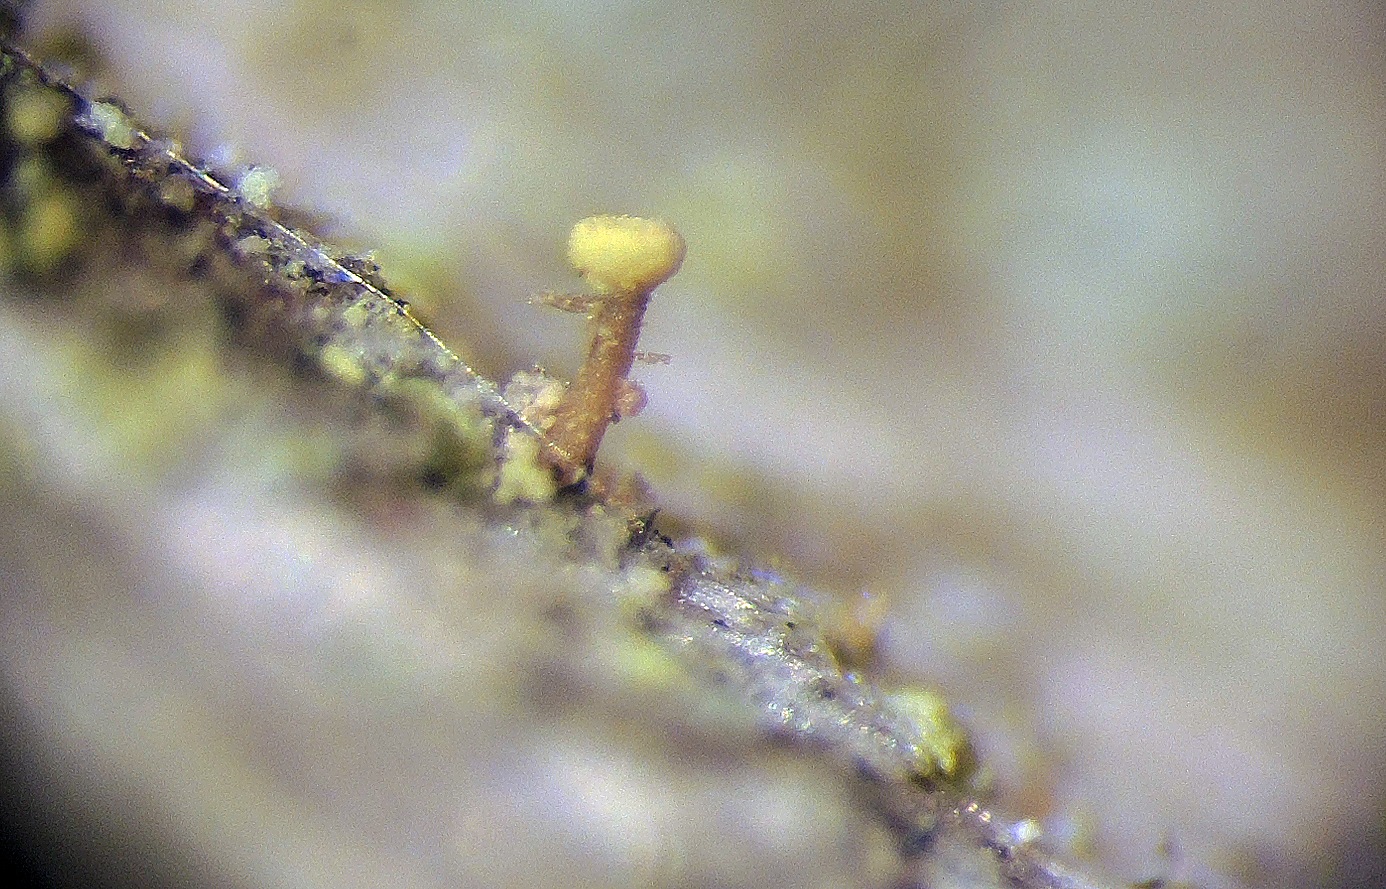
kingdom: Fungi
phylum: Ascomycota
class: Coniocybomycetes
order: Coniocybales
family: Coniocybaceae
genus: Sclerophora
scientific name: Sclerophora
